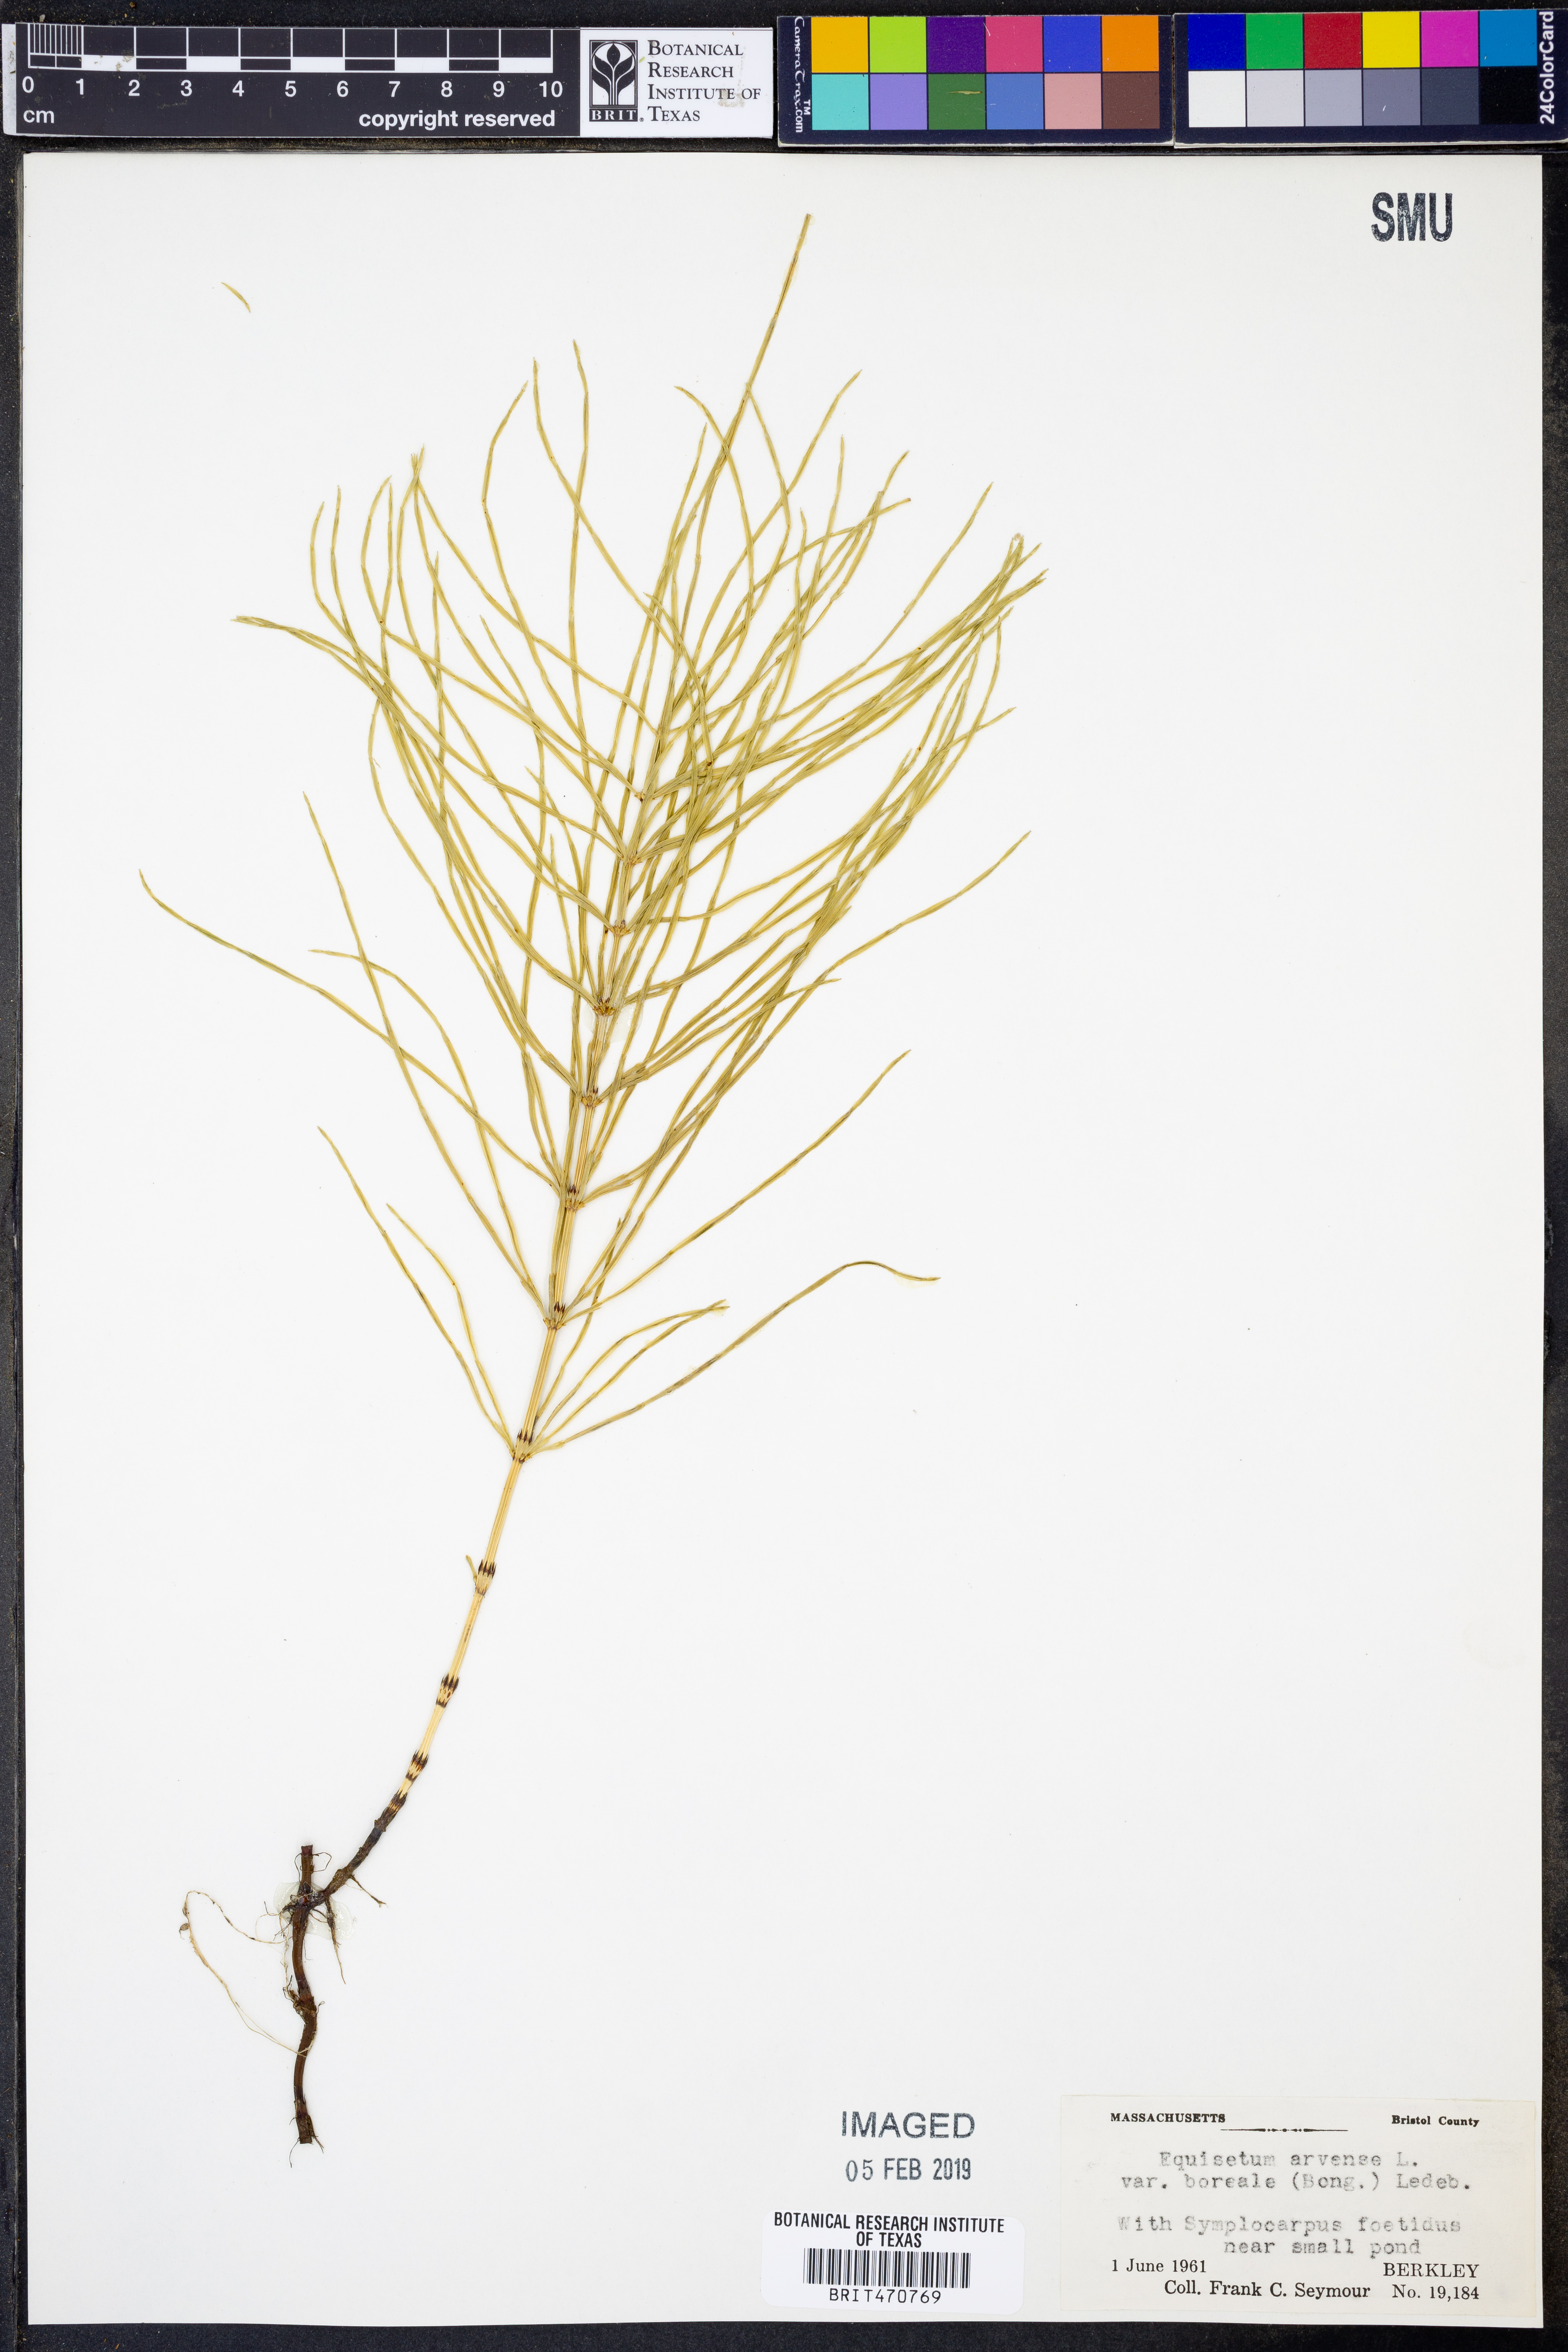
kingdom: Plantae
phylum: Tracheophyta
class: Polypodiopsida
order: Equisetales
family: Equisetaceae
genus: Equisetum
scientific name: Equisetum arvense
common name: Field horsetail
